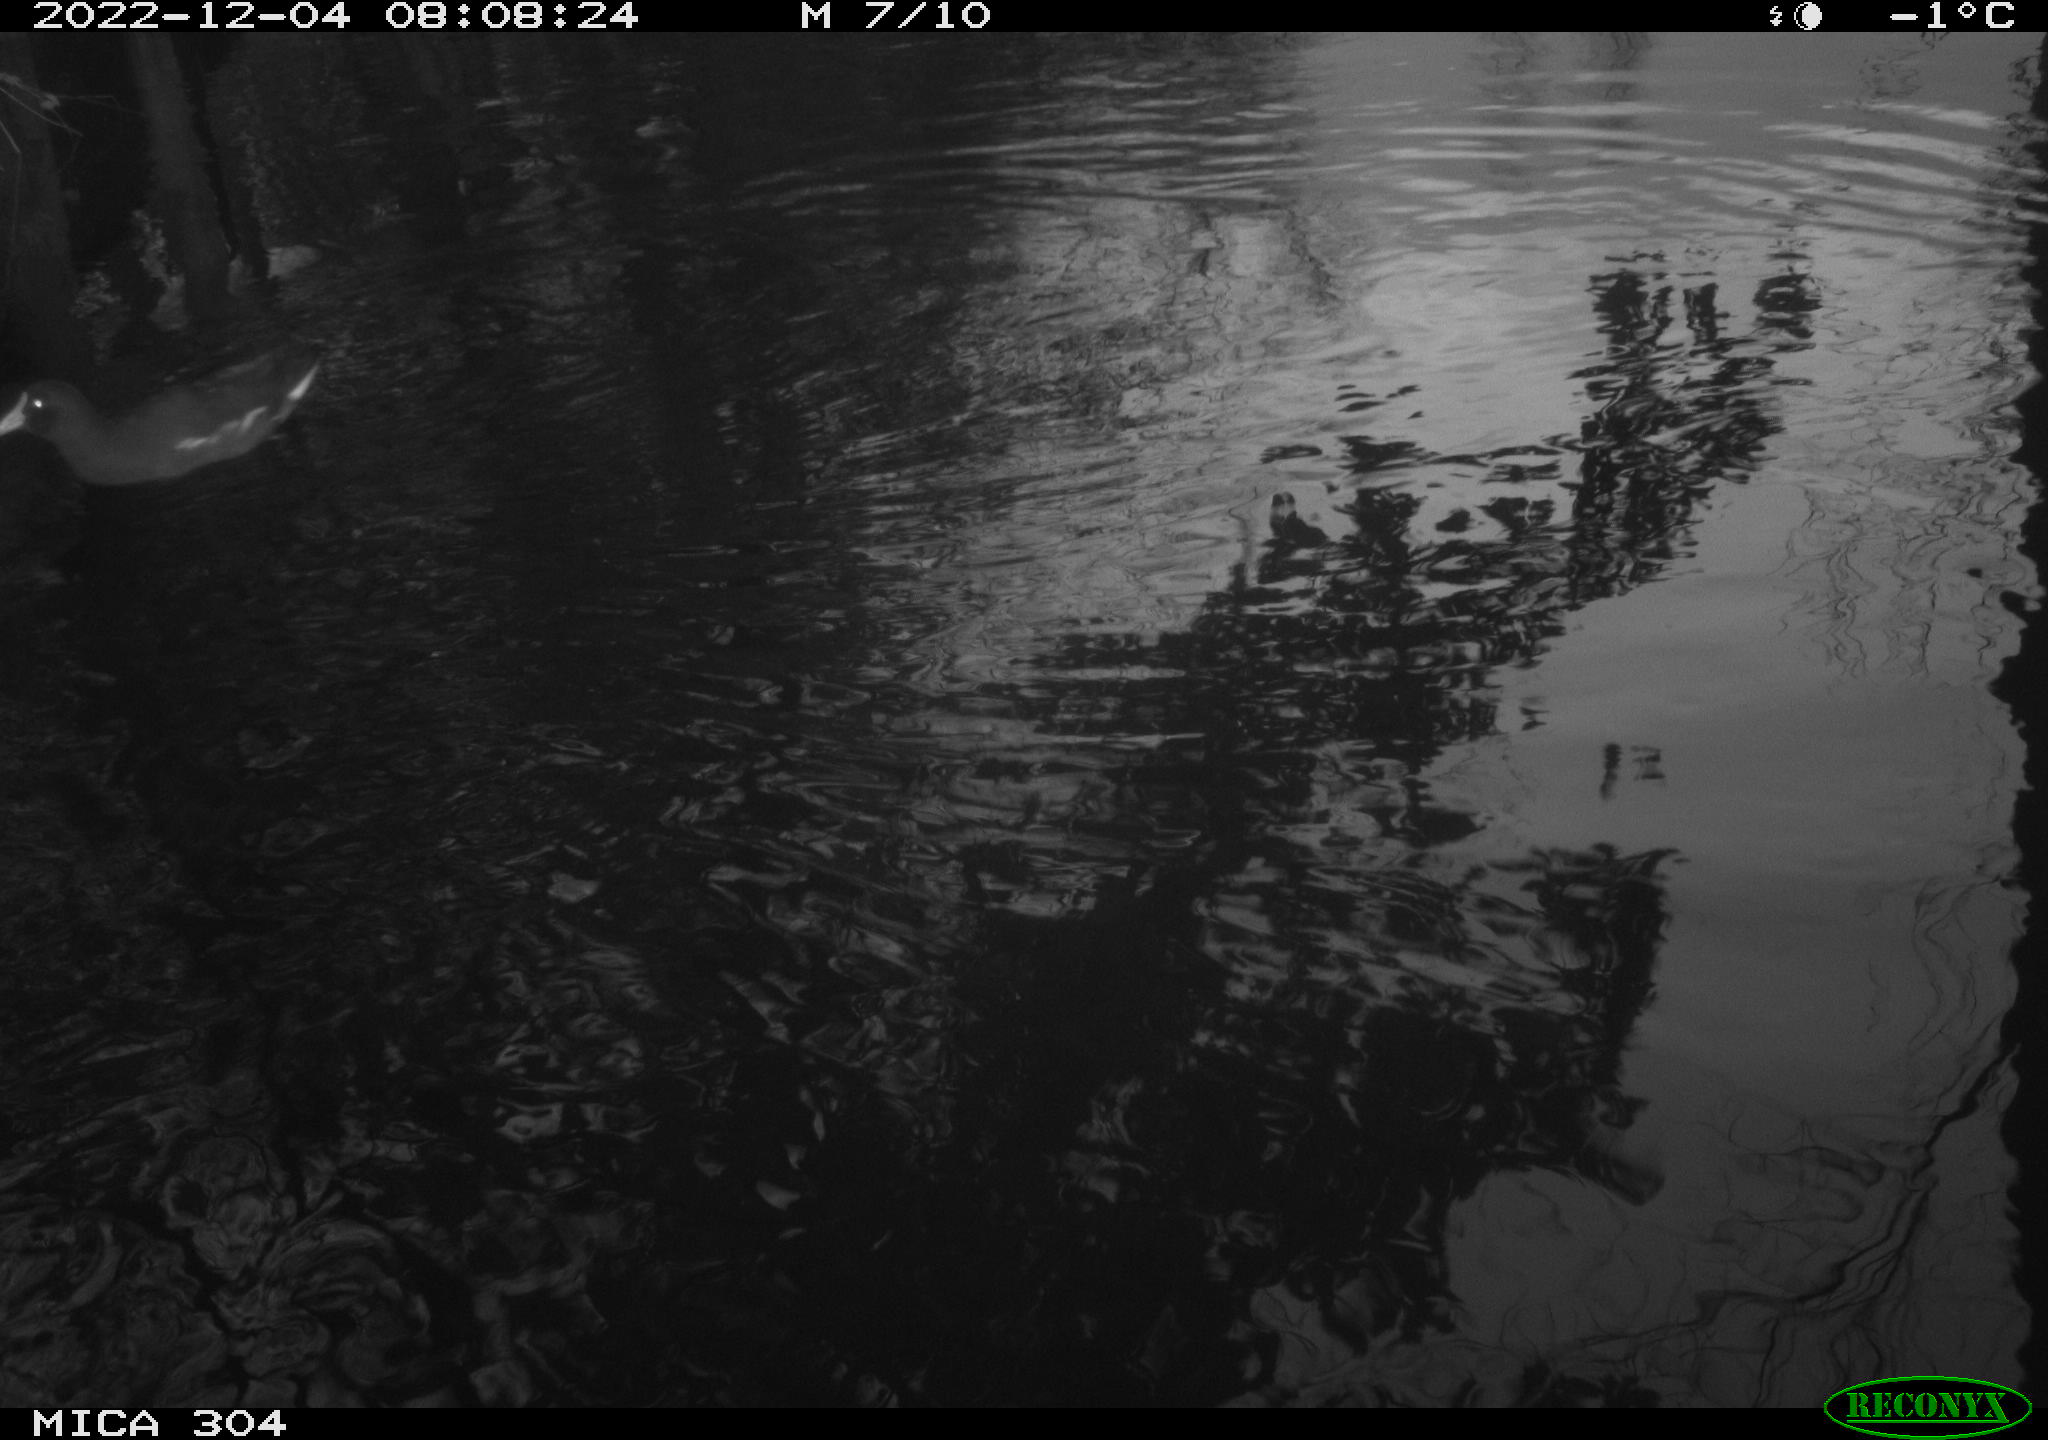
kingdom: Animalia
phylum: Chordata
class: Aves
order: Gruiformes
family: Rallidae
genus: Gallinula
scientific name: Gallinula chloropus
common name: Common moorhen
